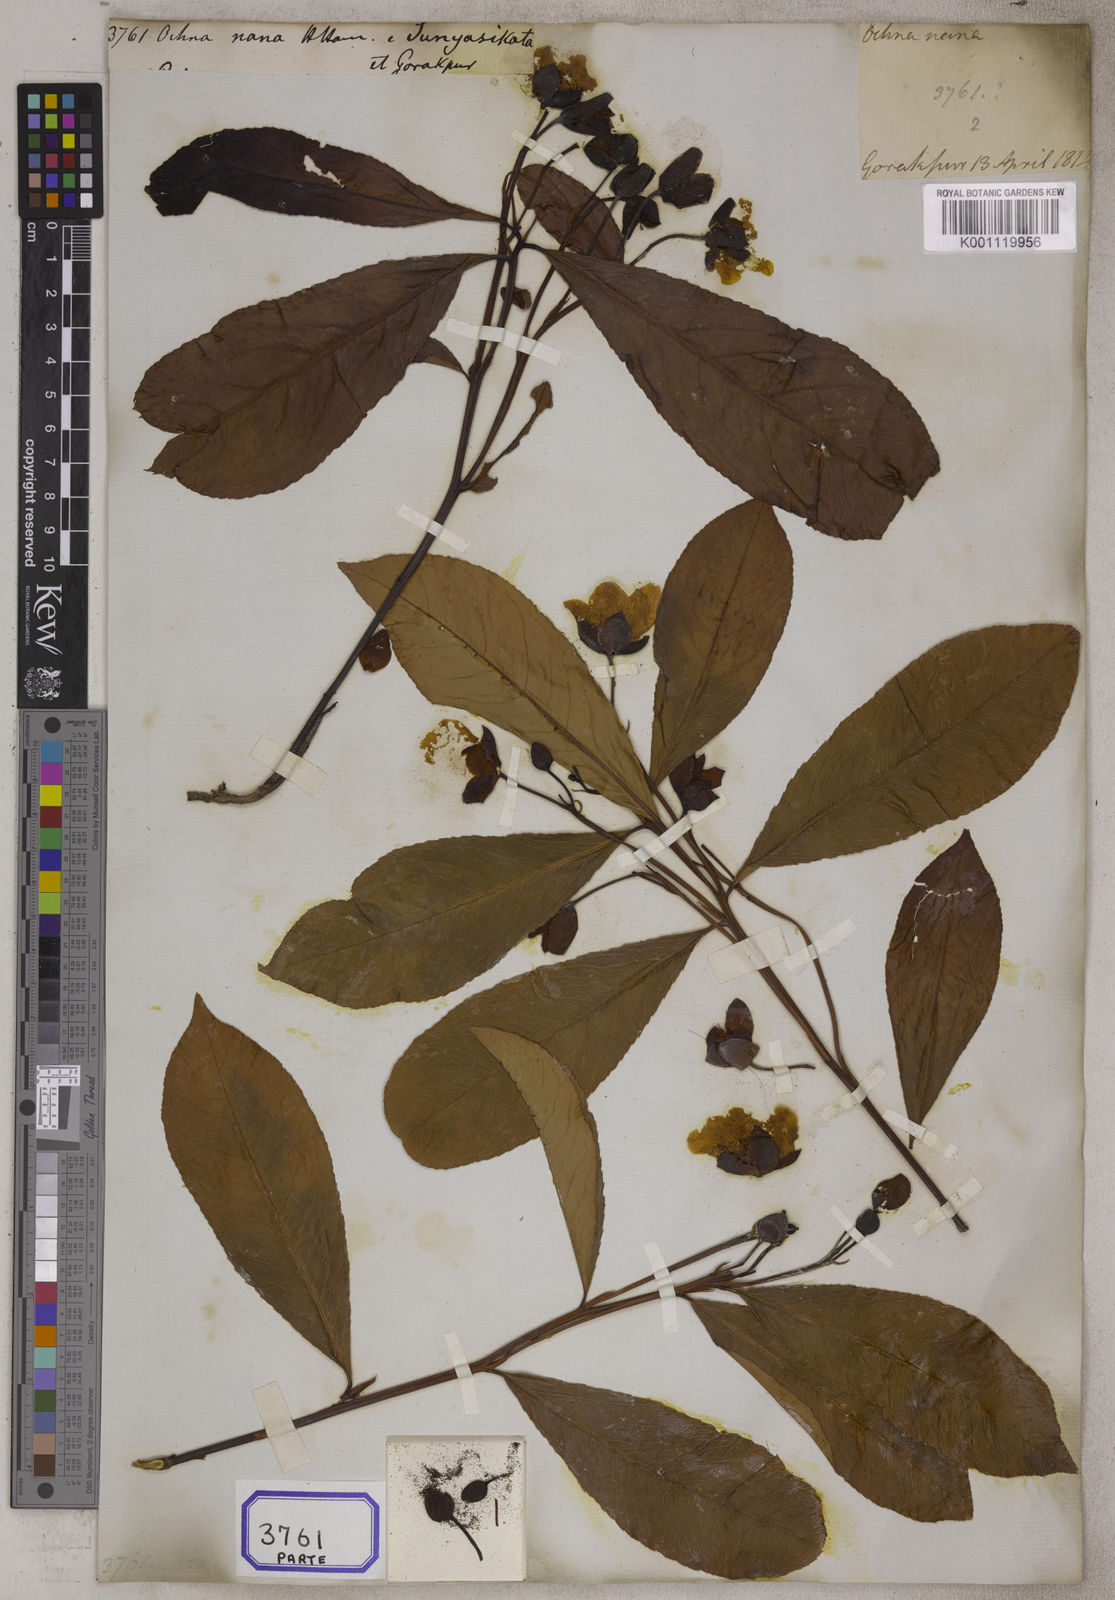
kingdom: Plantae
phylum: Tracheophyta
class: Magnoliopsida
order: Malpighiales
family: Ochnaceae
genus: Ochna
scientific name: Ochna pumila
